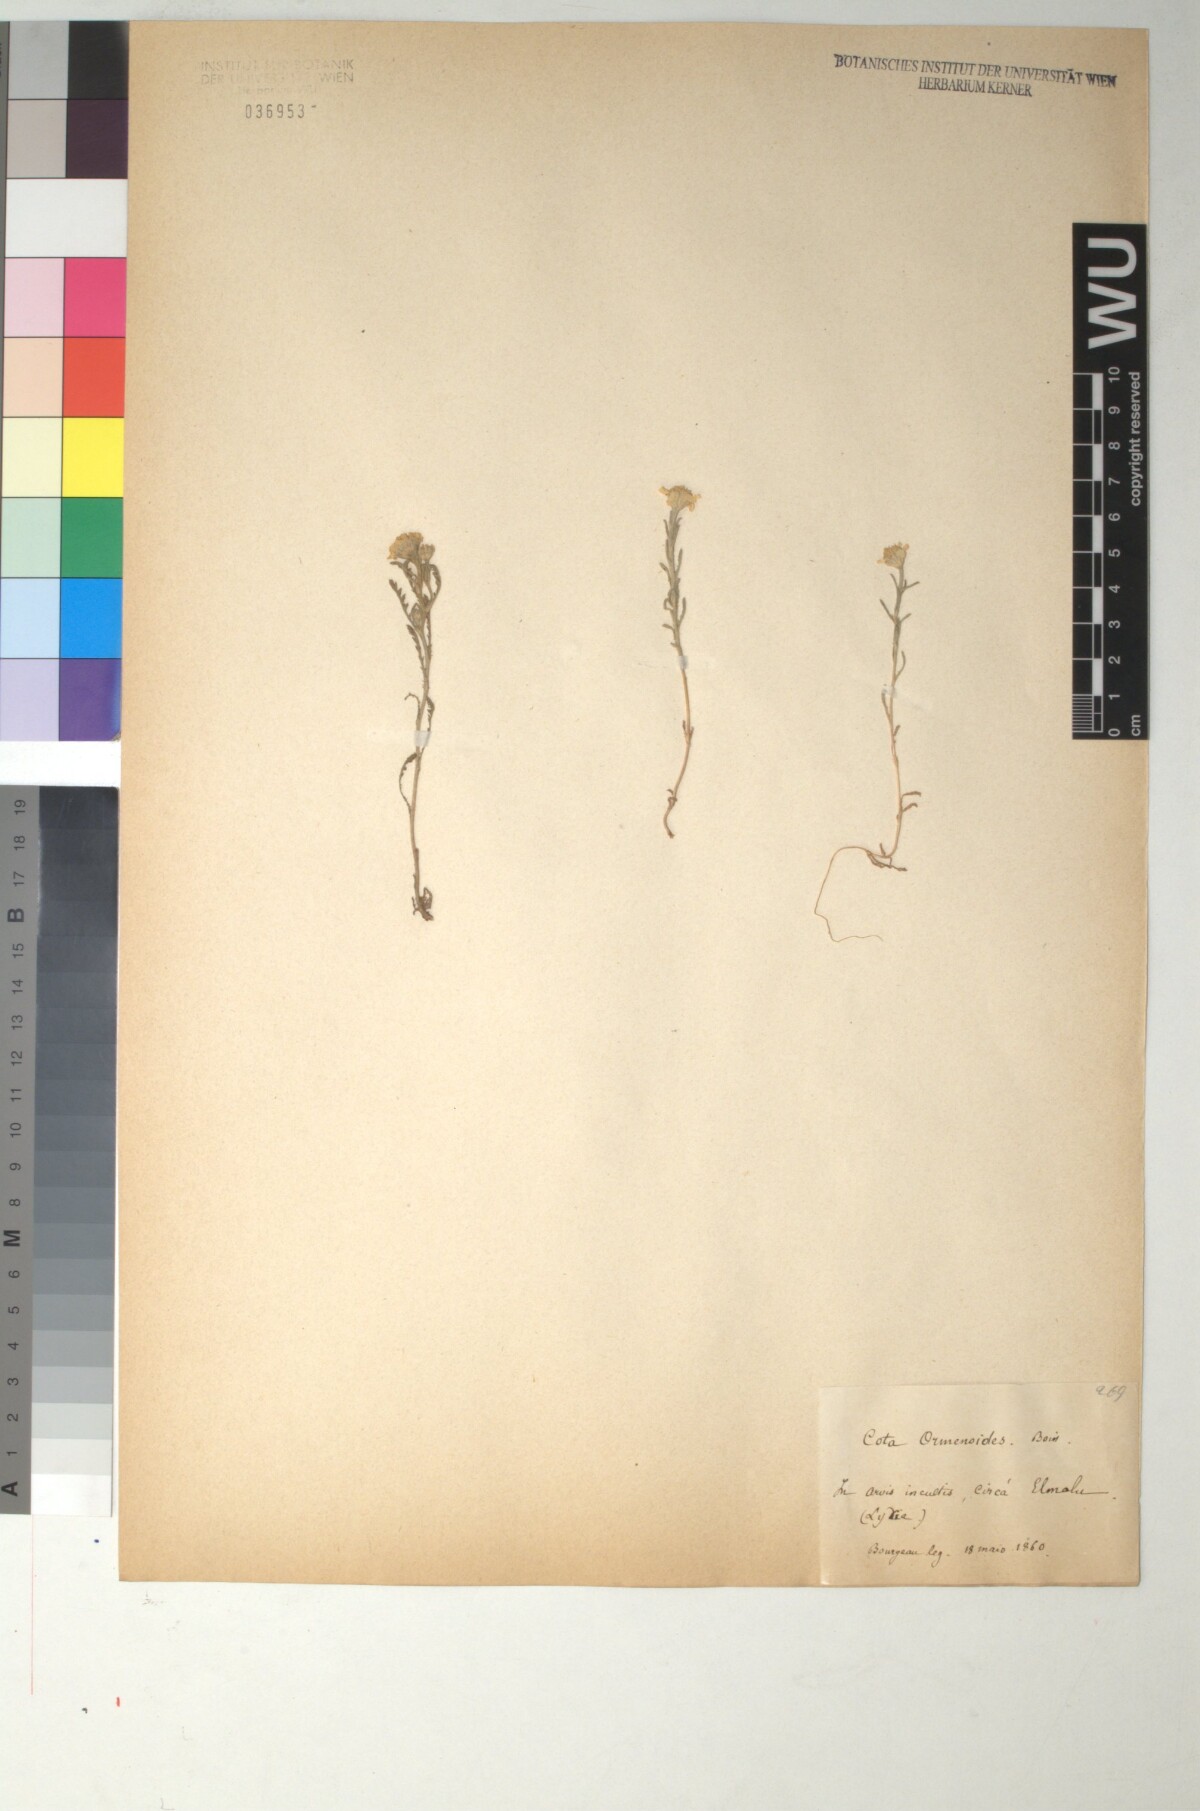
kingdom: Plantae
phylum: Tracheophyta
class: Magnoliopsida
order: Asterales
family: Asteraceae
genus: Cota
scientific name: Cota wiedemanniana
